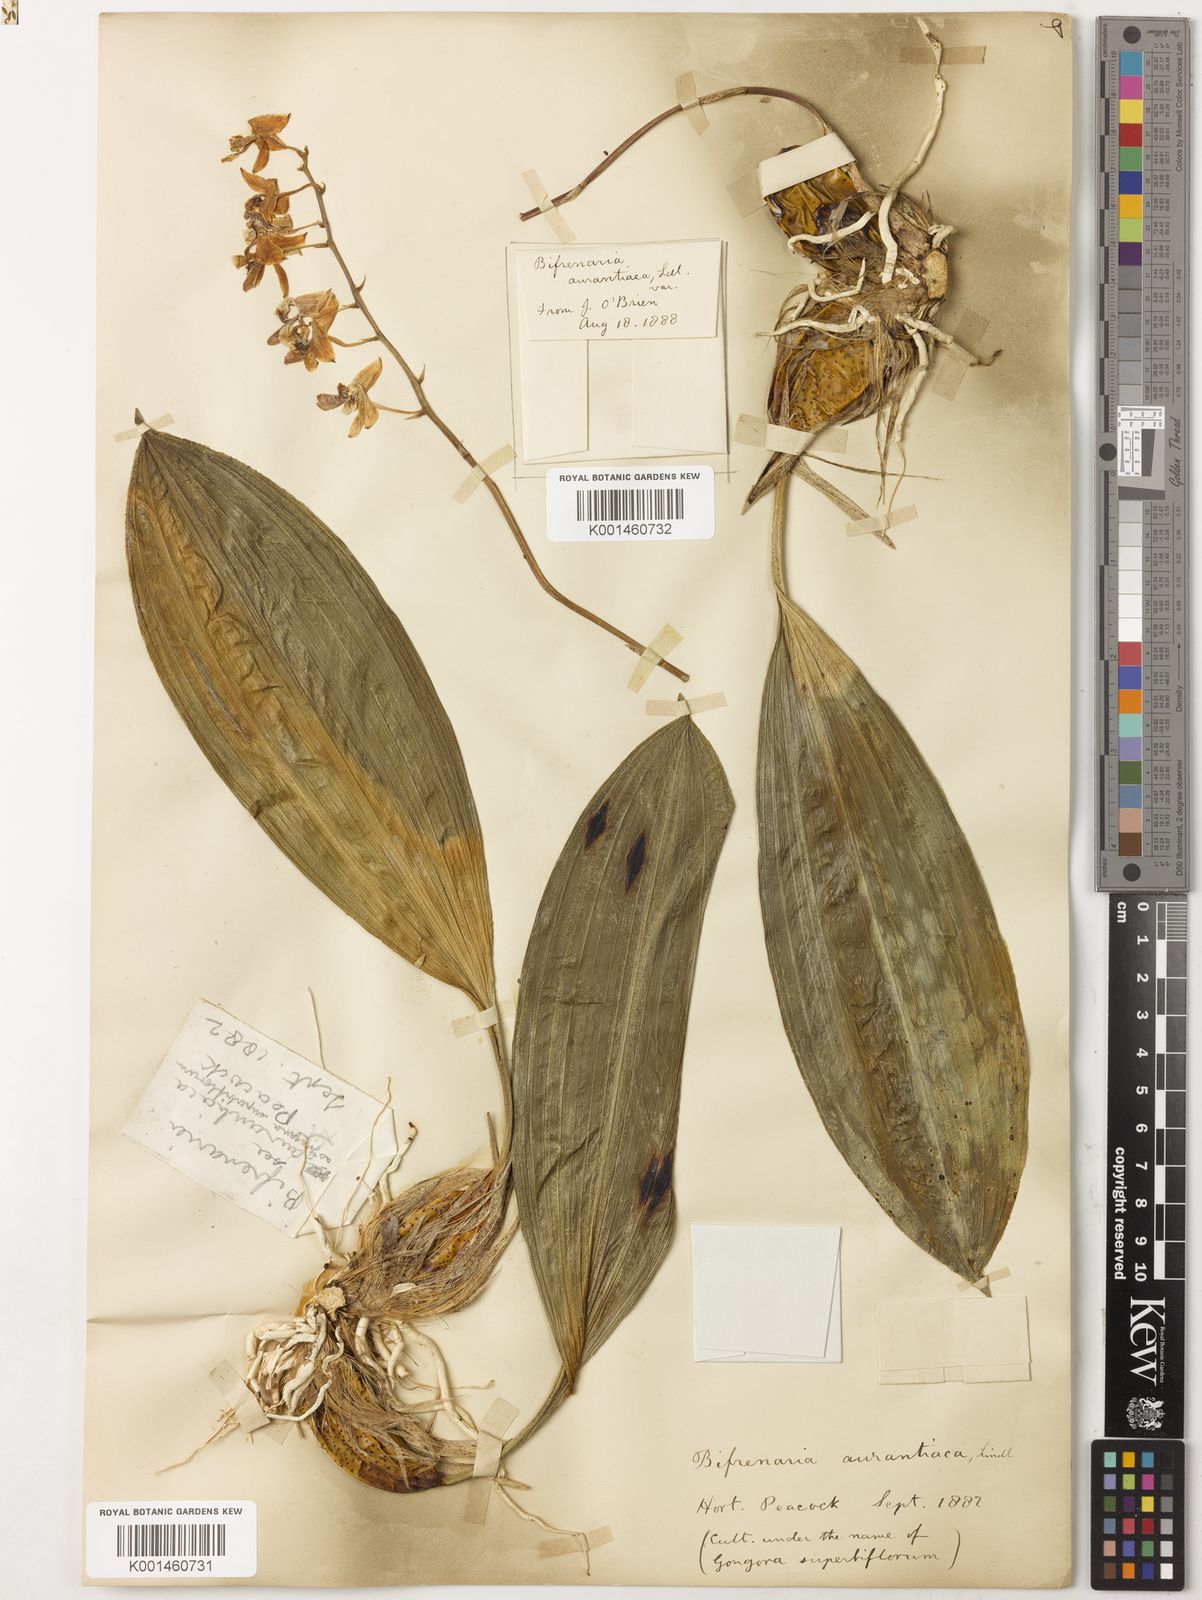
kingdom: Plantae
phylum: Tracheophyta
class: Liliopsida
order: Asparagales
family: Orchidaceae
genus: Rudolfiella
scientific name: Rudolfiella aurantiaca
